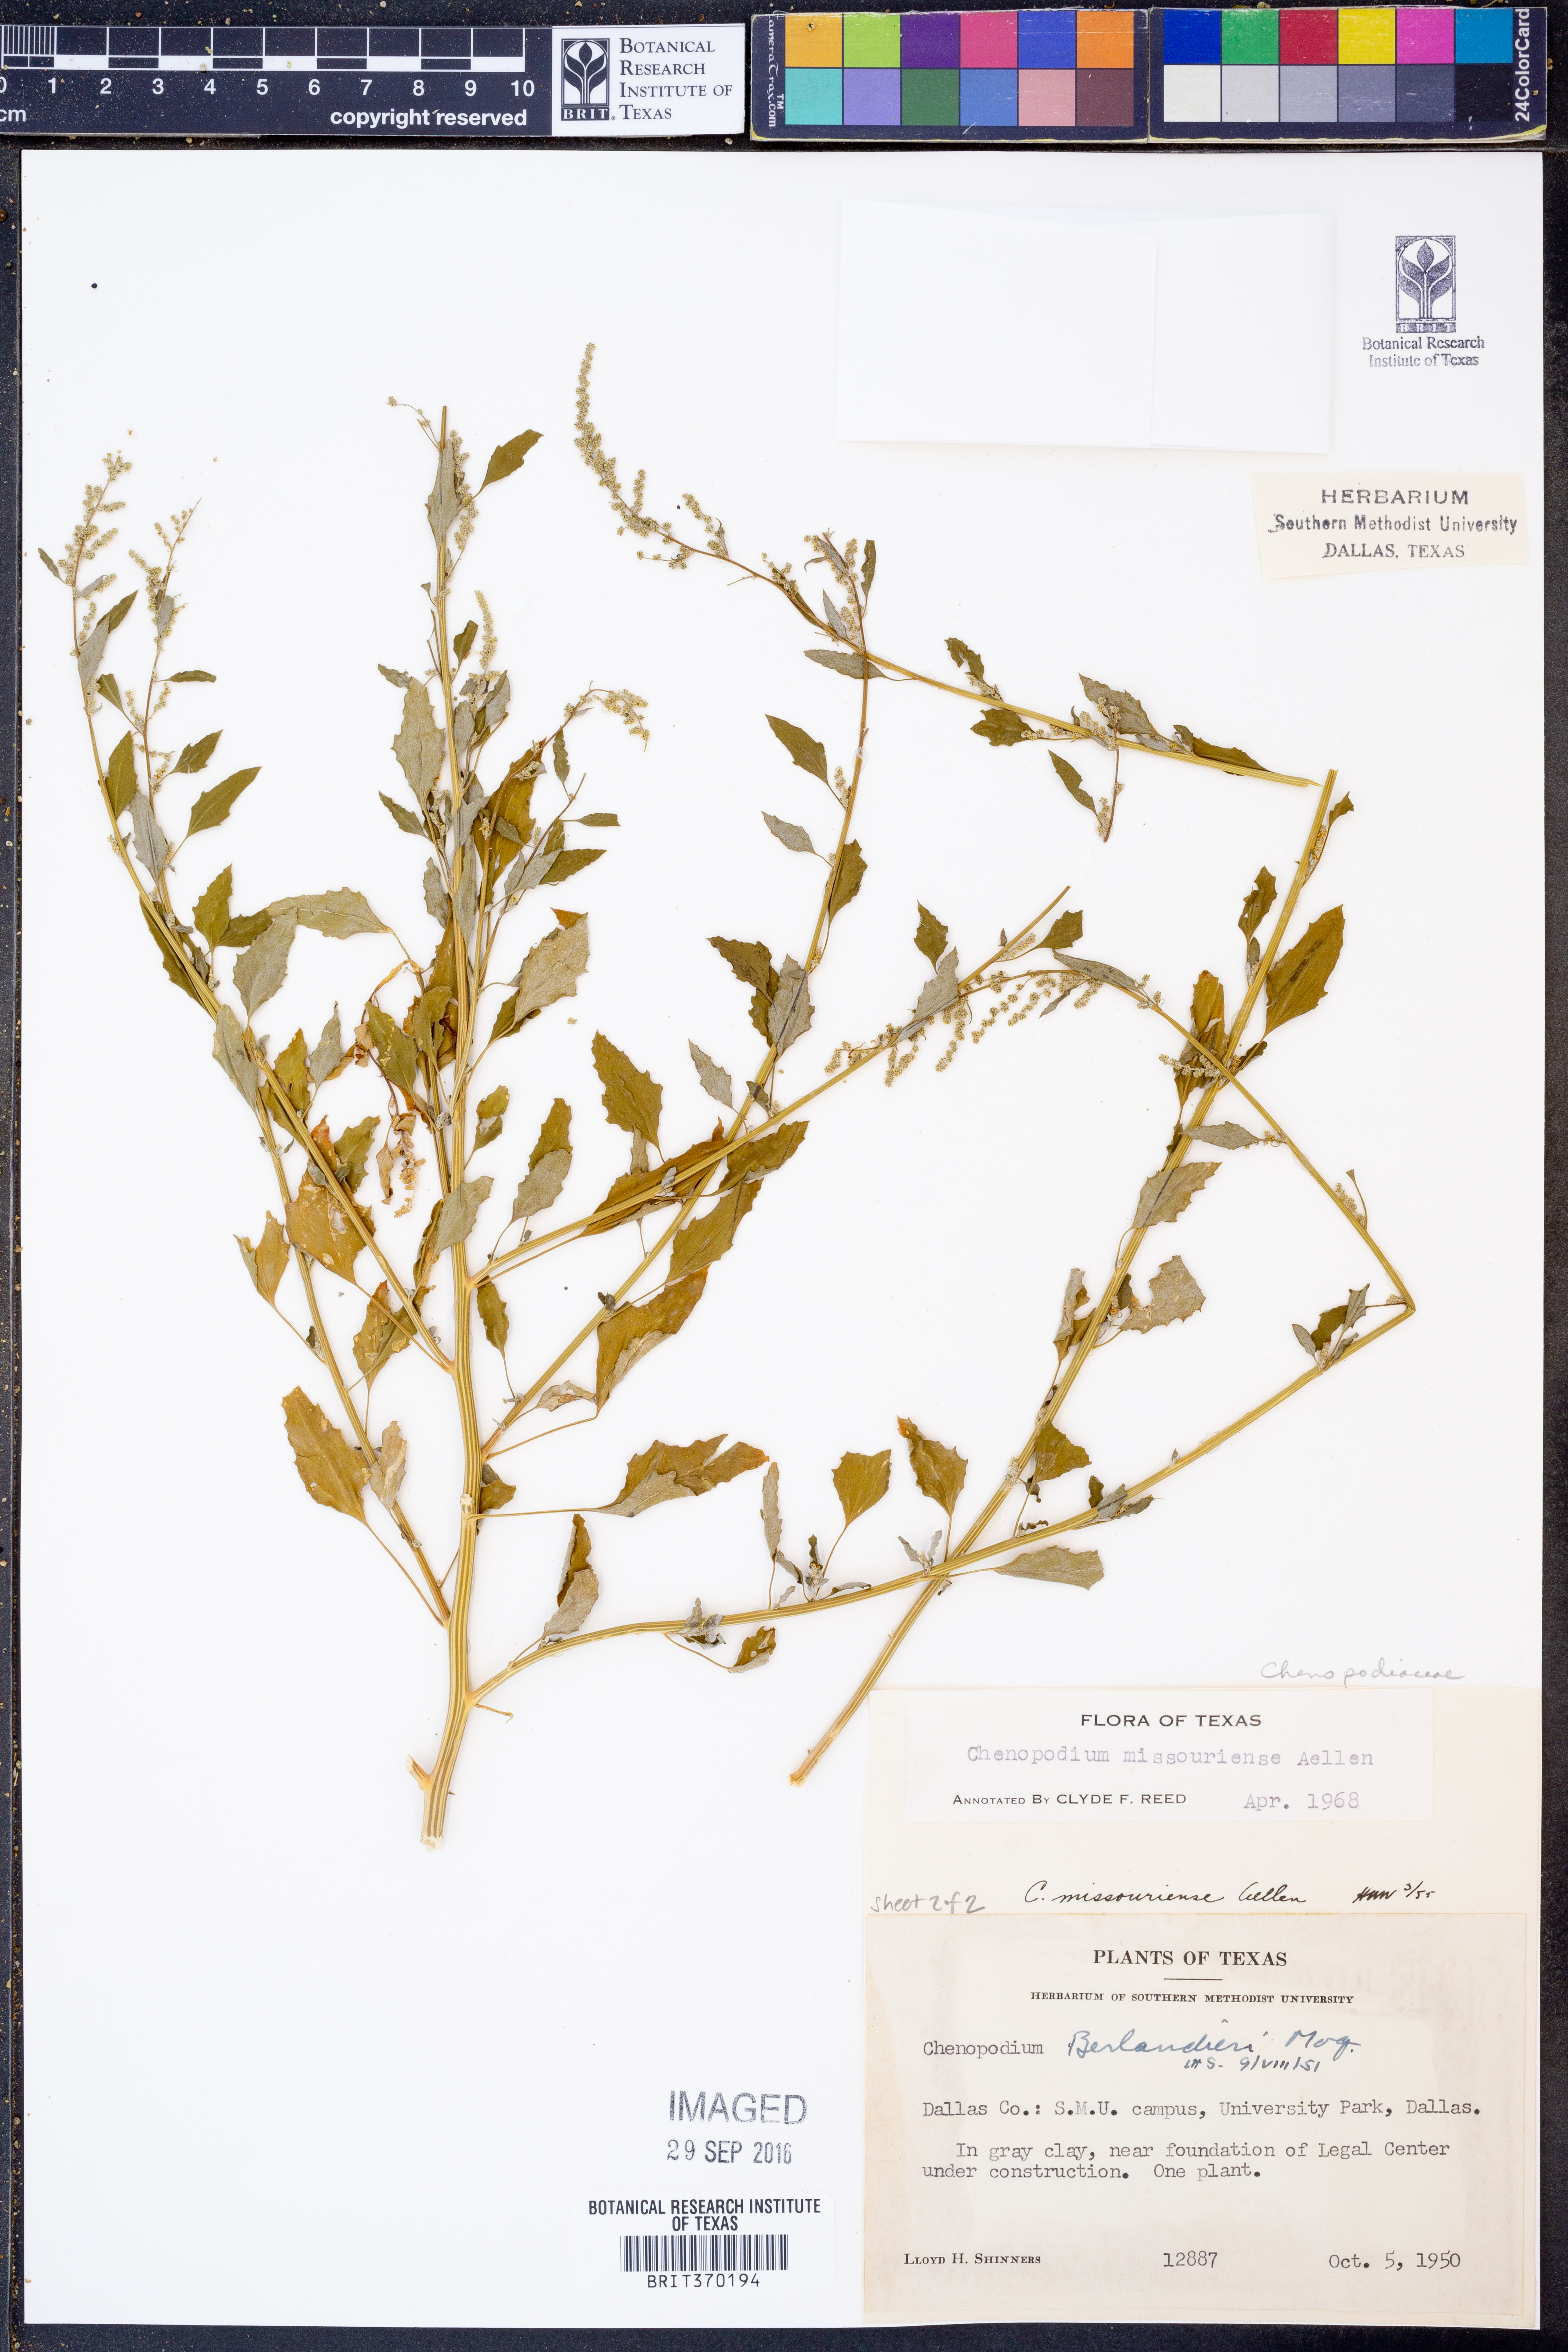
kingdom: Plantae
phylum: Tracheophyta
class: Magnoliopsida
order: Caryophyllales
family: Amaranthaceae
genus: Chenopodium
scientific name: Chenopodium album
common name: Fat-hen
